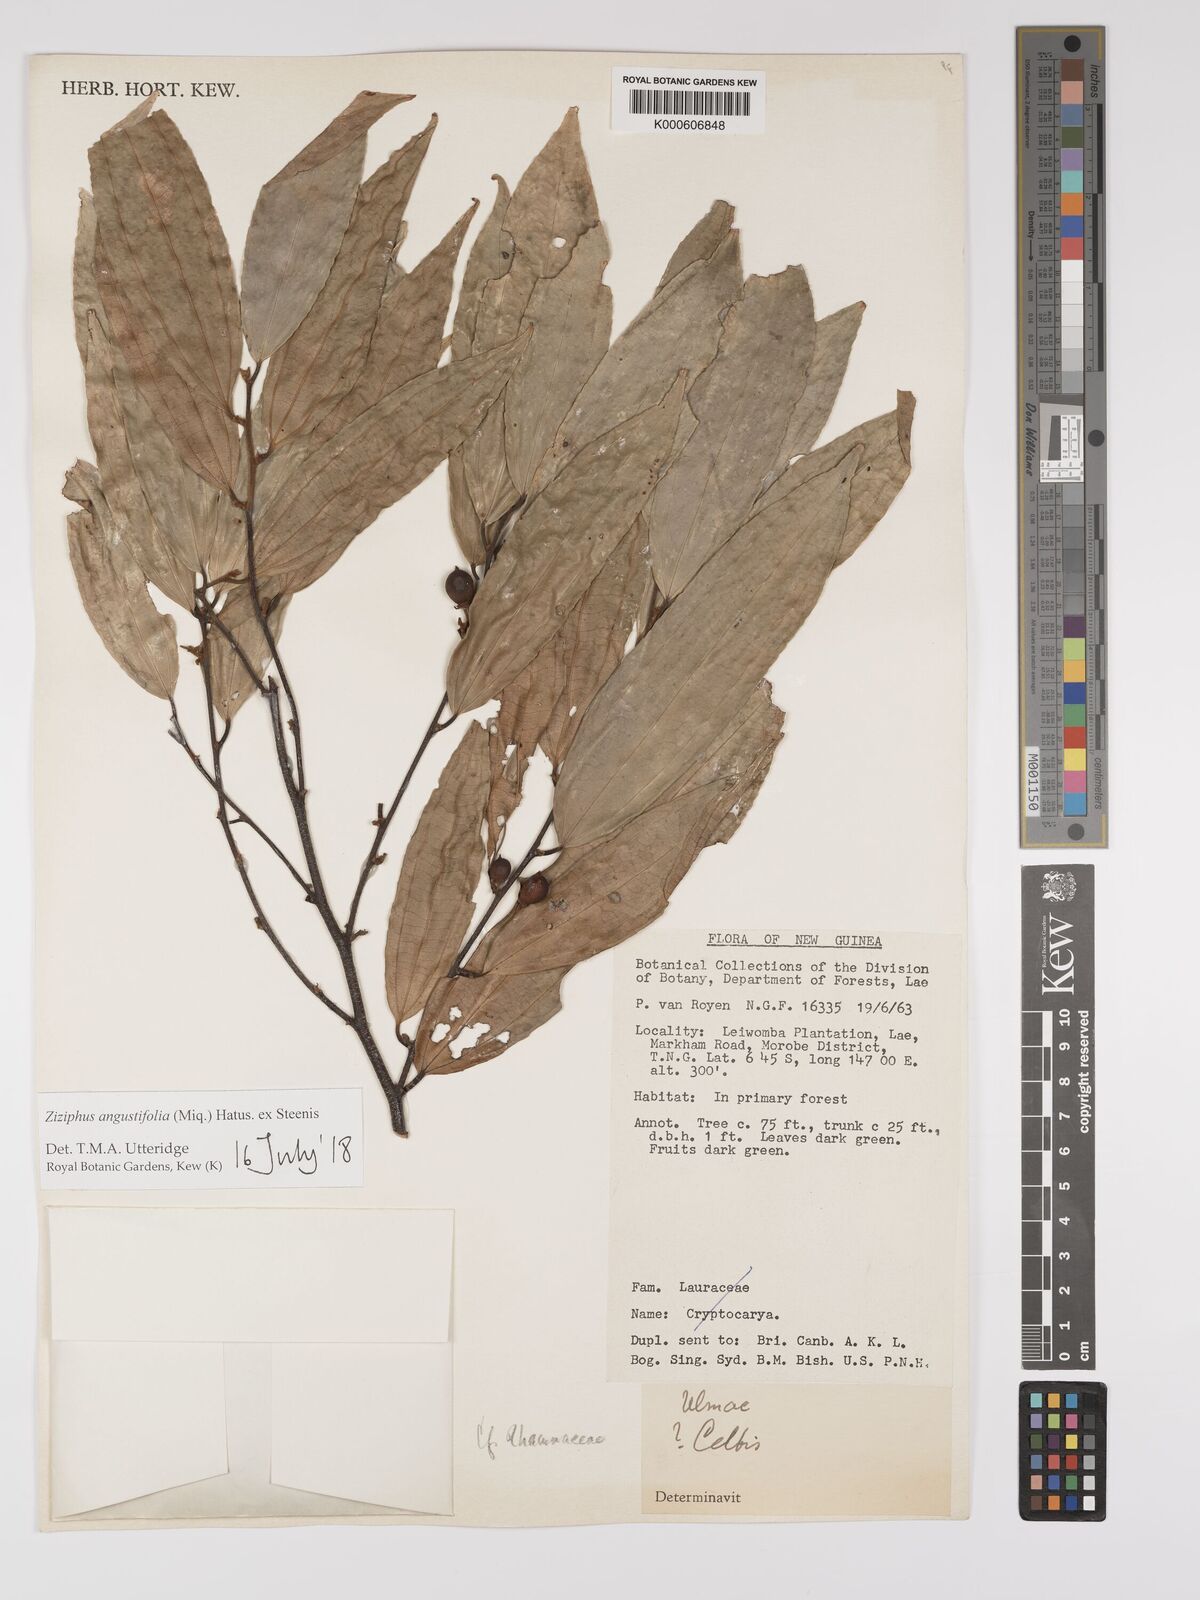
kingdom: Plantae
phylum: Tracheophyta
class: Magnoliopsida
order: Rosales
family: Rhamnaceae
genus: Ziziphus
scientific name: Ziziphus angustifolia
